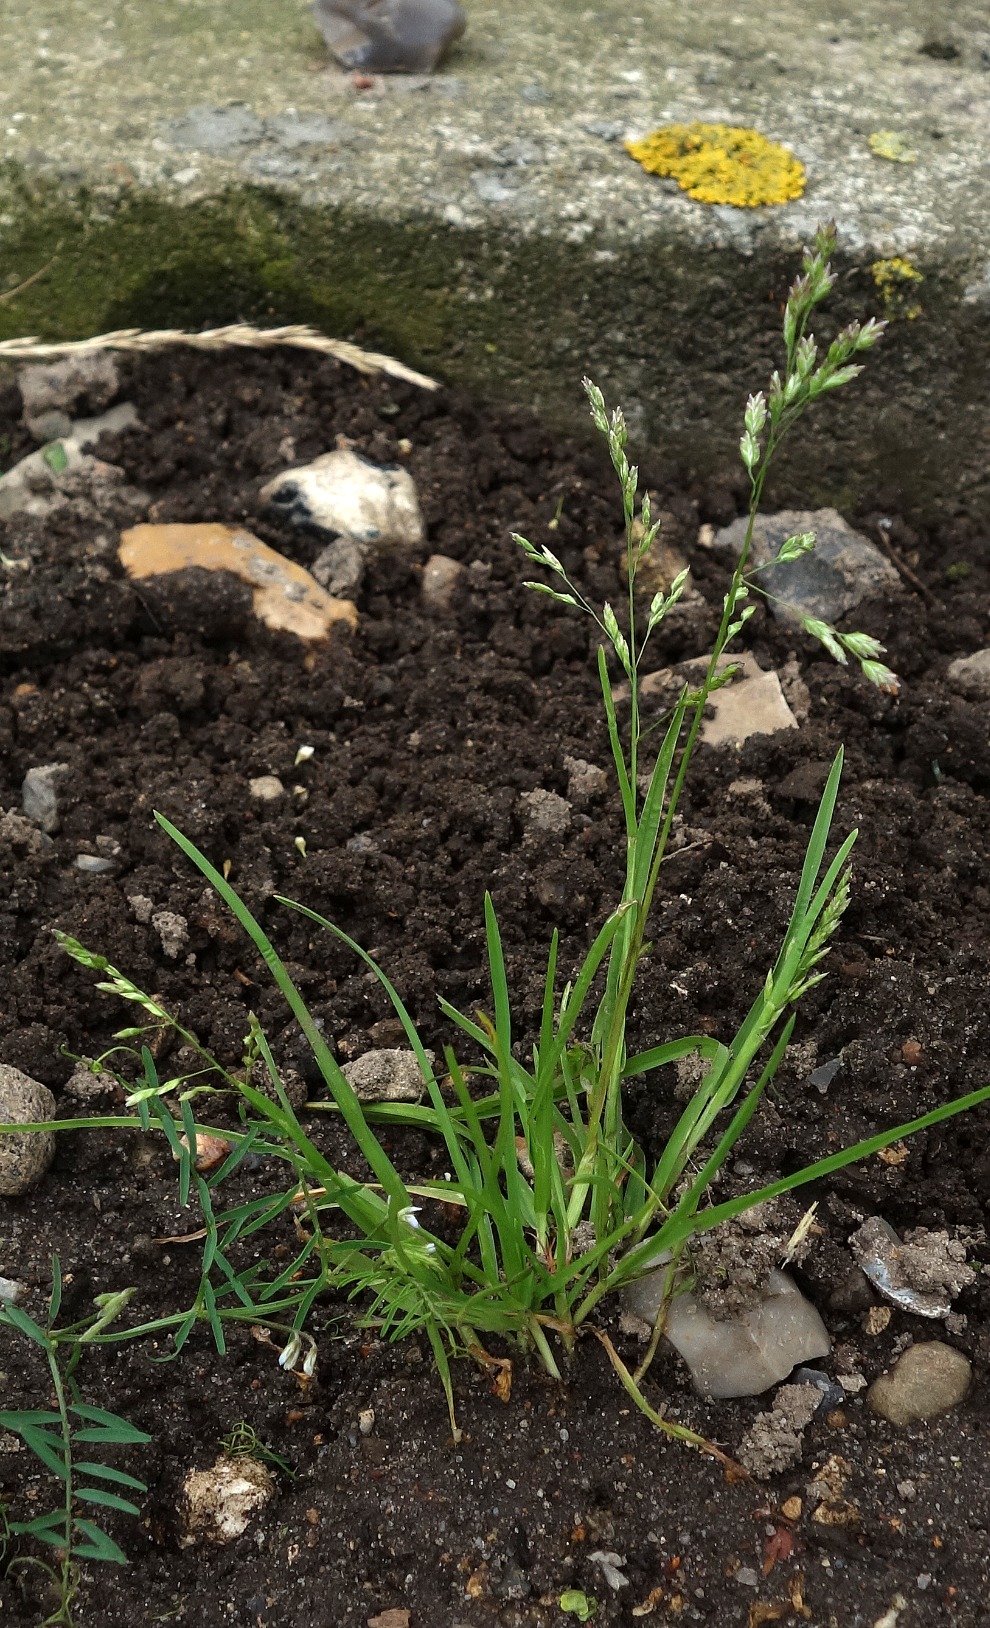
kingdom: Plantae
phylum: Tracheophyta
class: Liliopsida
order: Poales
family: Poaceae
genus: Poa
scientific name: Poa annua
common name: Enårig rapgræs
